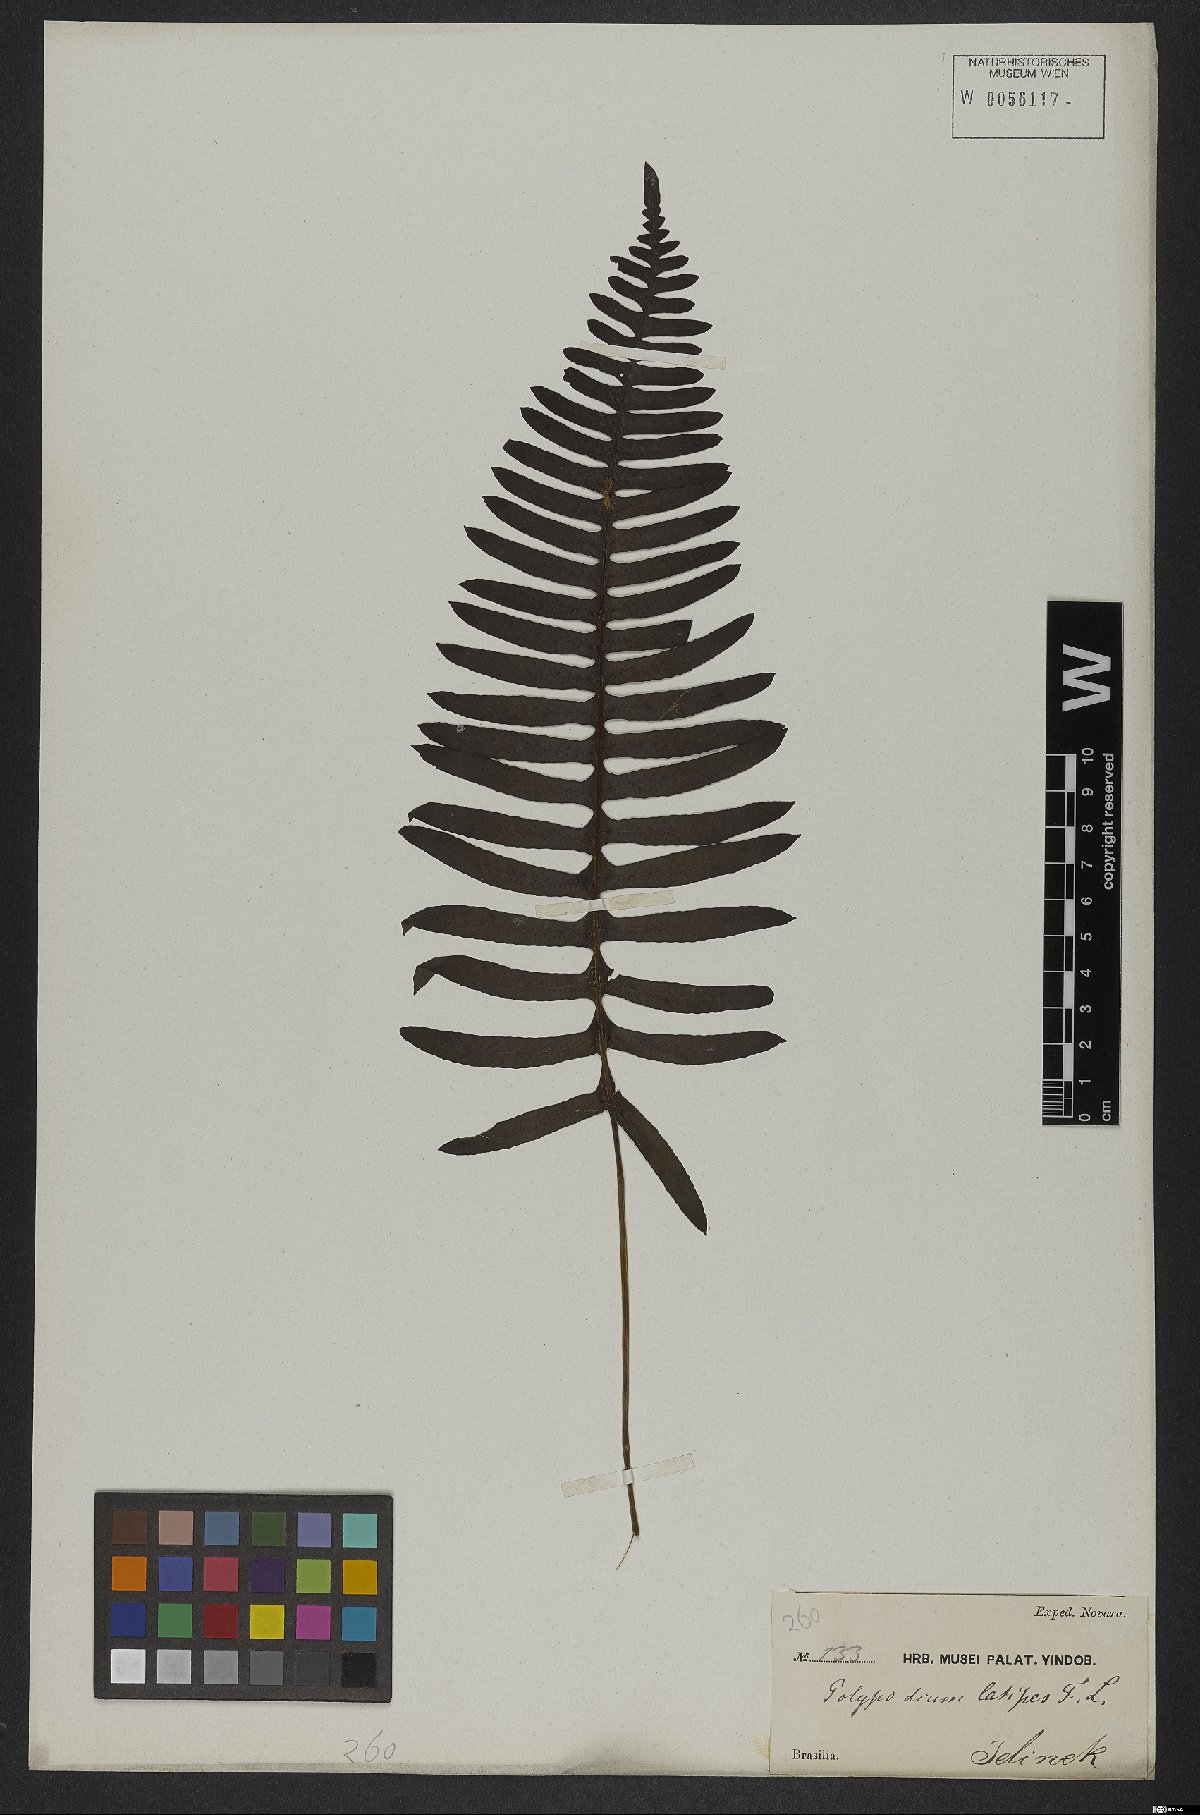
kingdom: Plantae
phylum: Tracheophyta
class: Polypodiopsida
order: Polypodiales
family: Polypodiaceae
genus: Polypodium
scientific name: Polypodium plesiosorum
